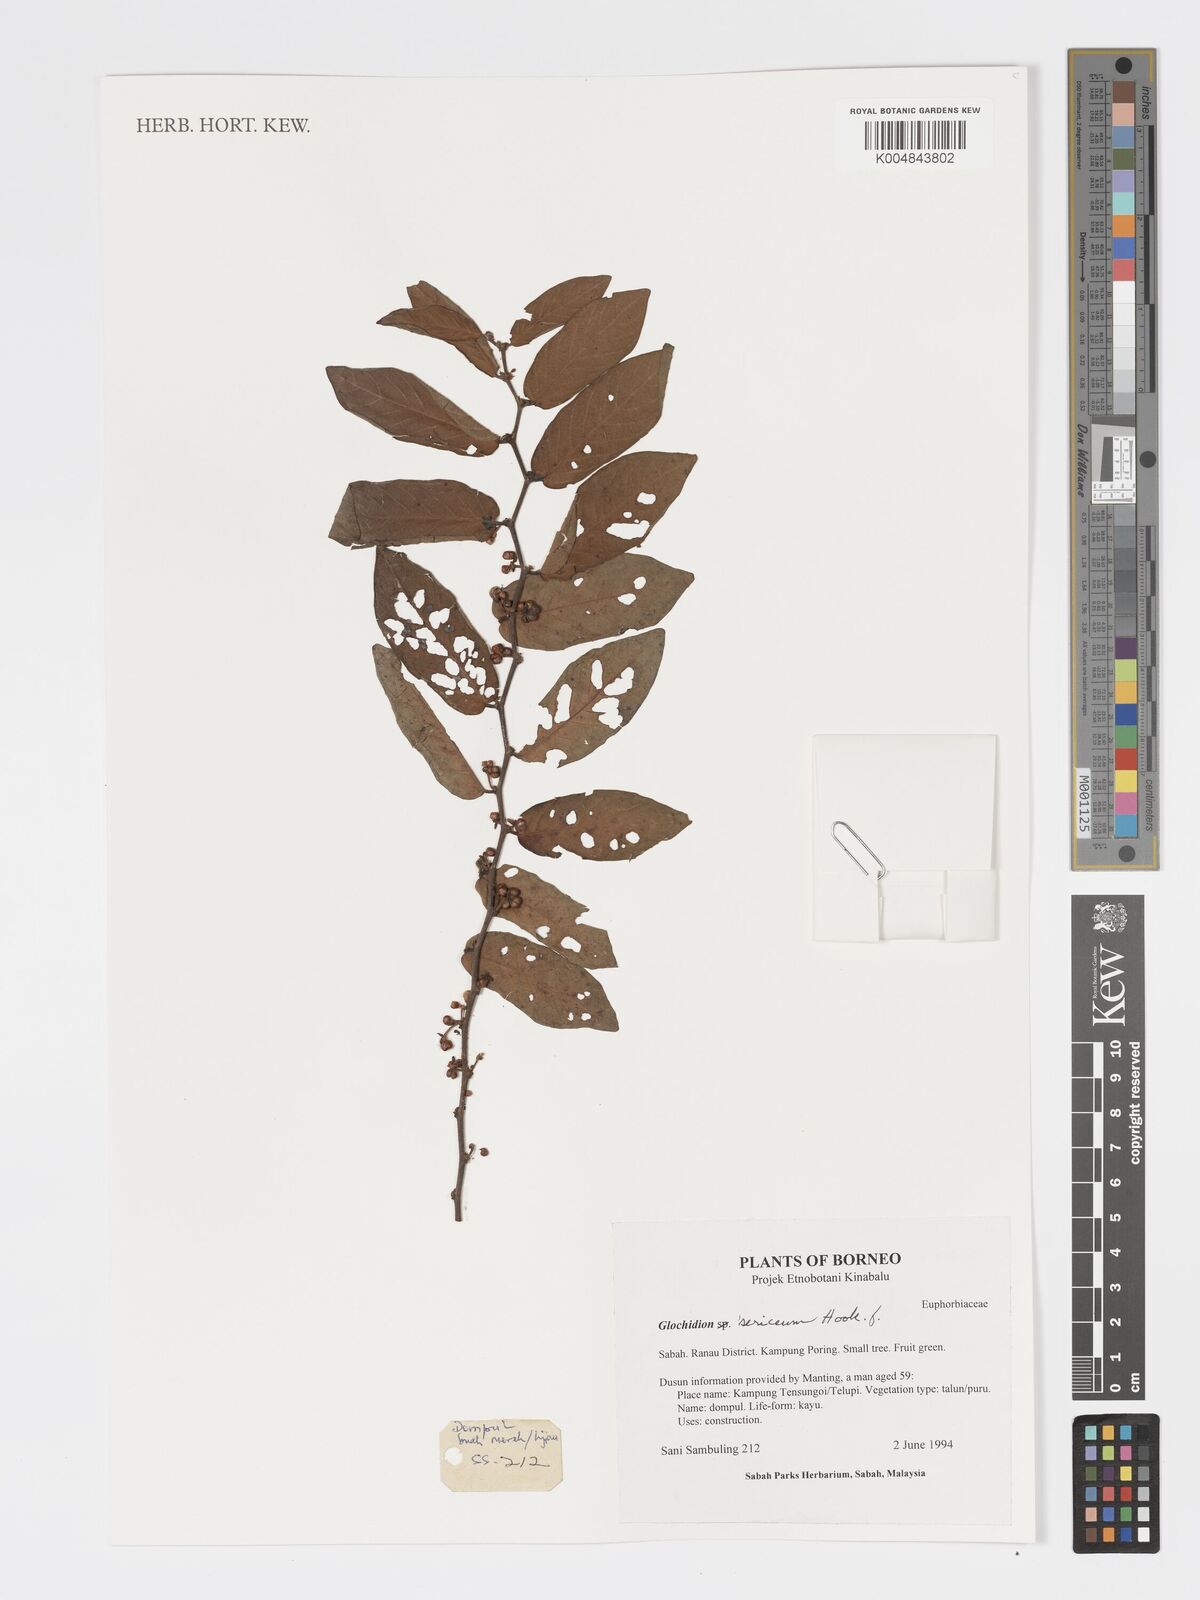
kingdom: Plantae
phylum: Tracheophyta
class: Magnoliopsida
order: Malpighiales
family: Phyllanthaceae
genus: Glochidion
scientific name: Glochidion sericeum
